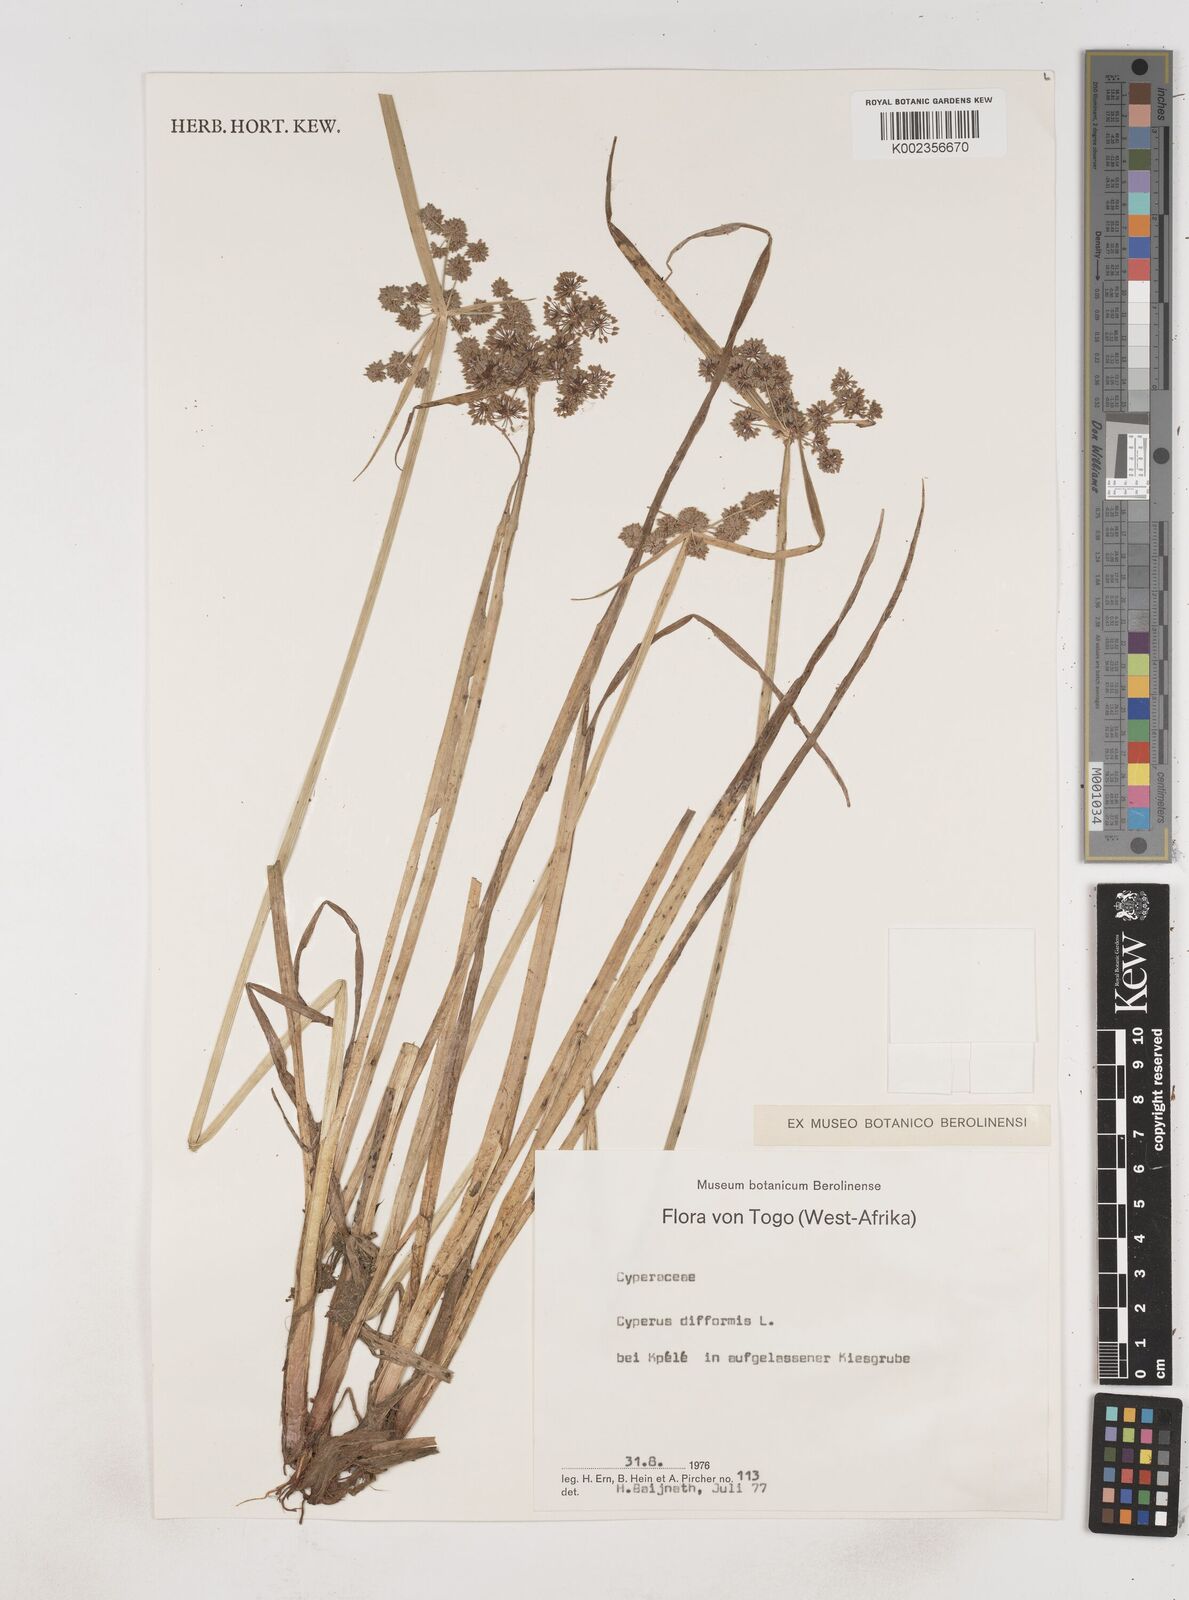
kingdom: Plantae
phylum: Tracheophyta
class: Liliopsida
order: Poales
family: Cyperaceae
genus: Cyperus
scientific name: Cyperus difformis
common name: Variable flatsedge
